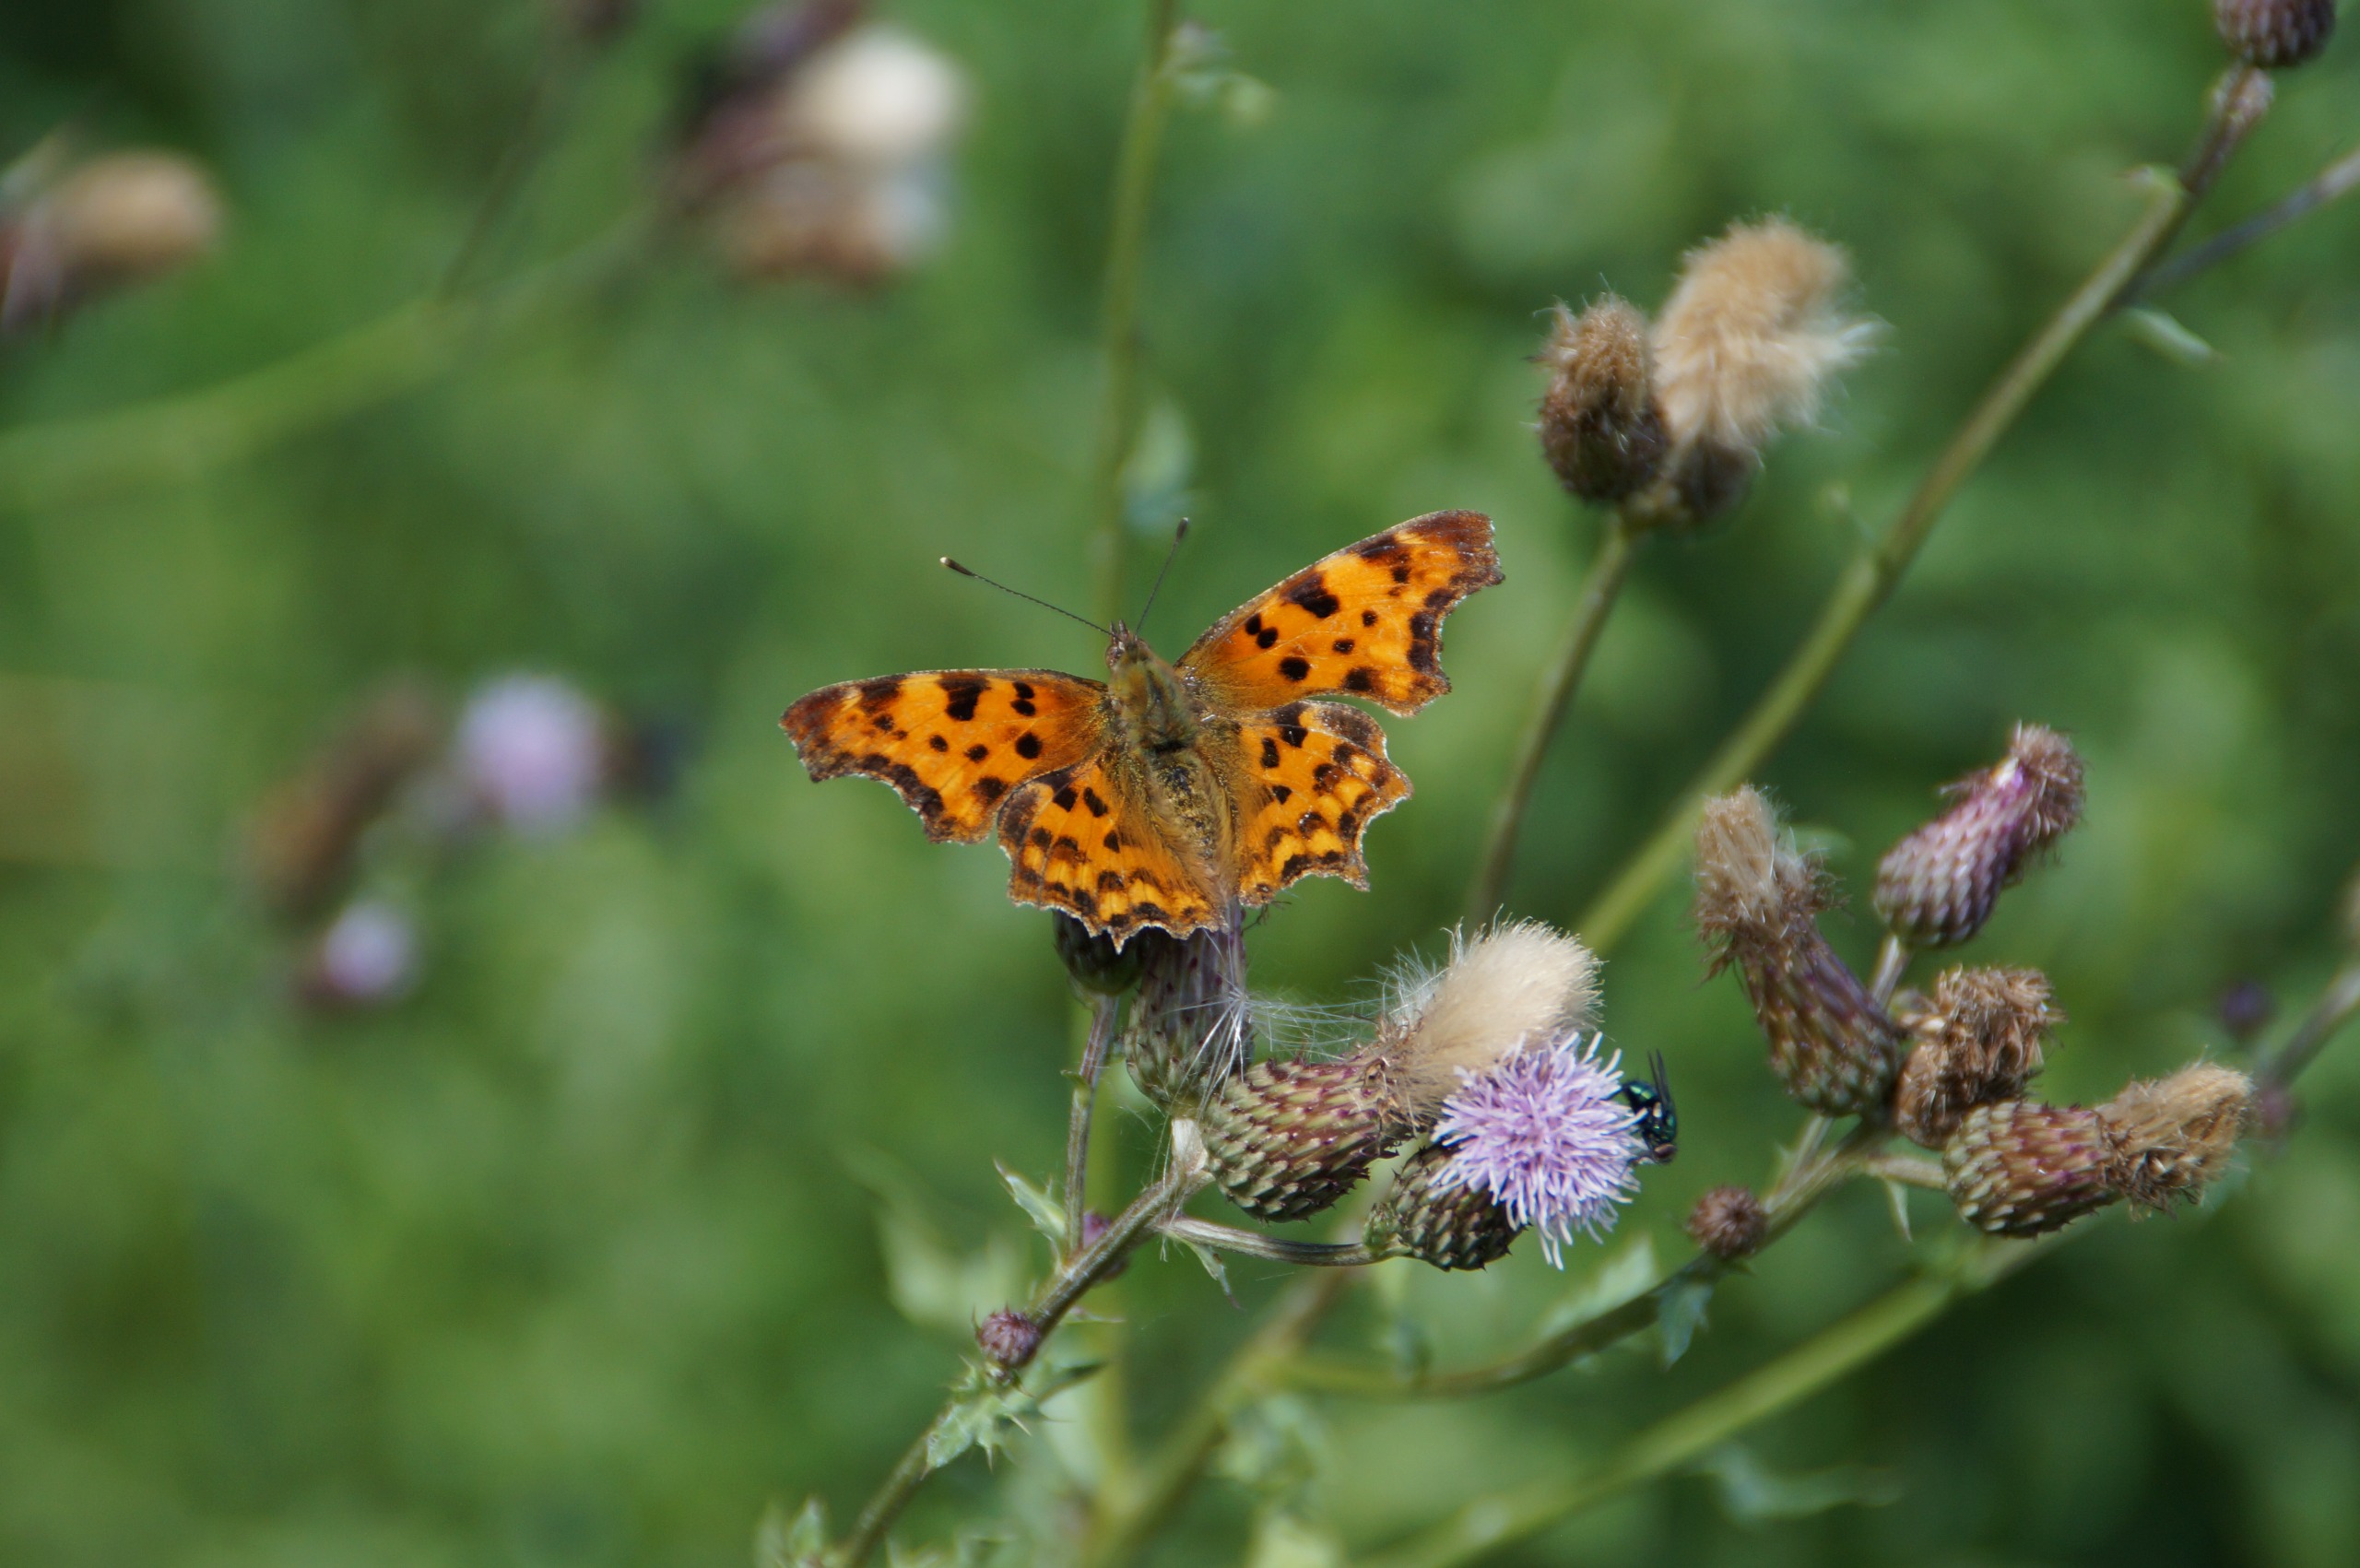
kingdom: Animalia
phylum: Arthropoda
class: Insecta
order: Lepidoptera
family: Nymphalidae
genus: Polygonia
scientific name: Polygonia c-album
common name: Det hvide C
